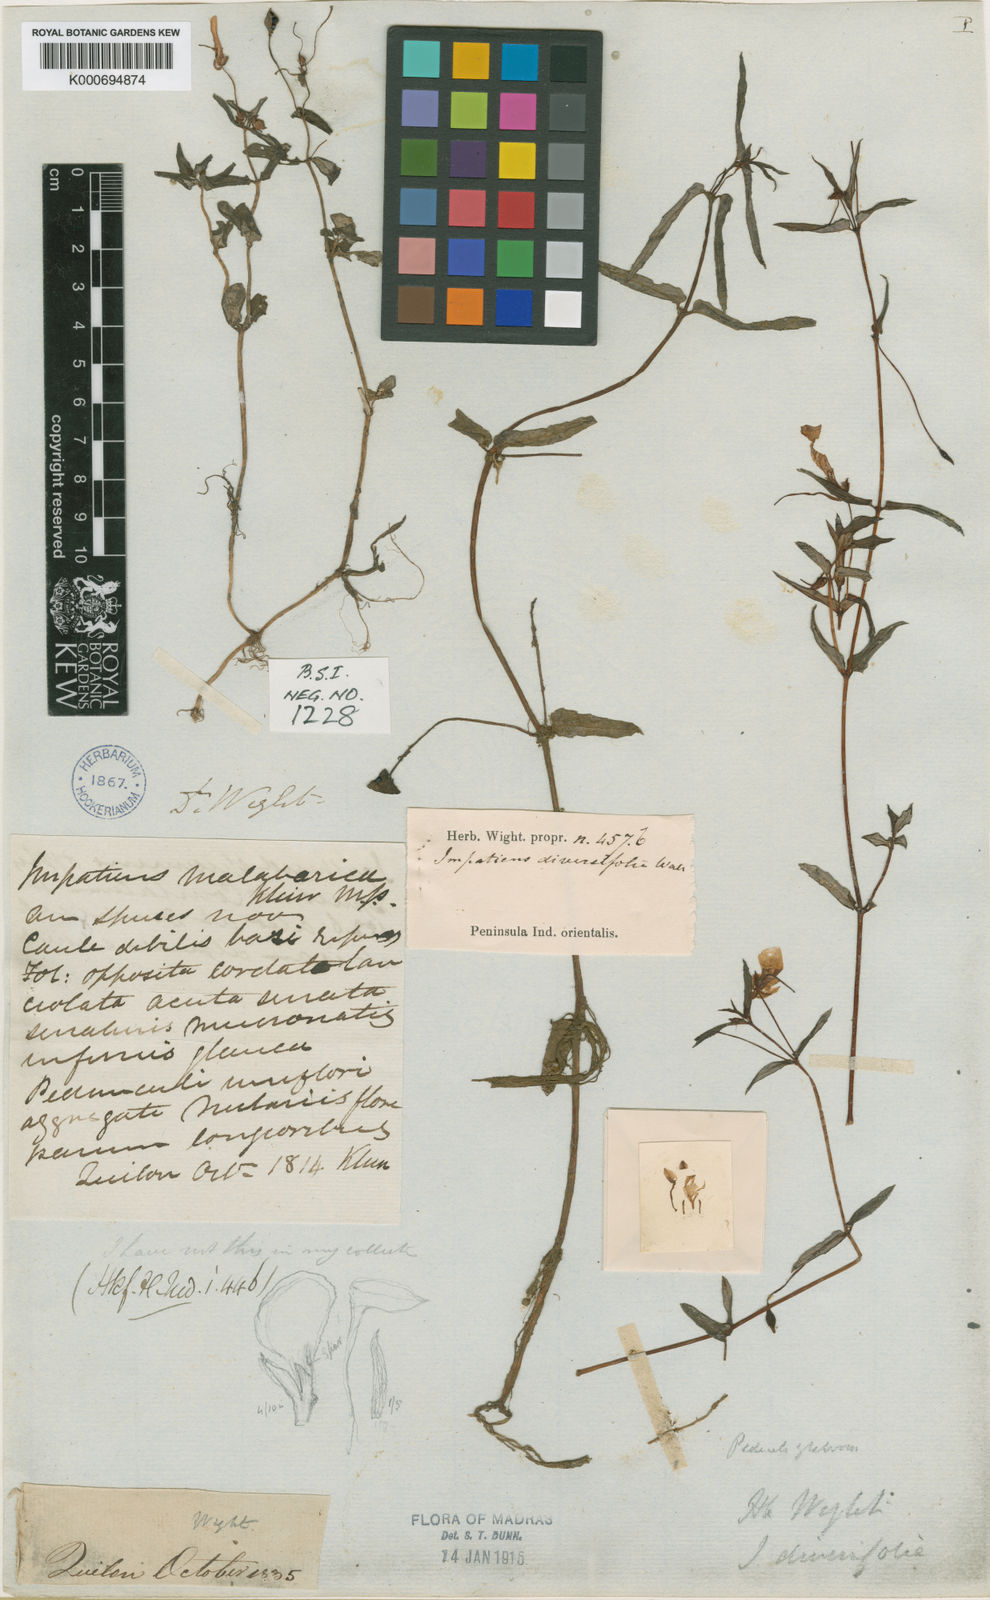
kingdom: Plantae
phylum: Tracheophyta
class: Magnoliopsida
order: Ericales
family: Balsaminaceae
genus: Impatiens
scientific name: Impatiens ligulata
